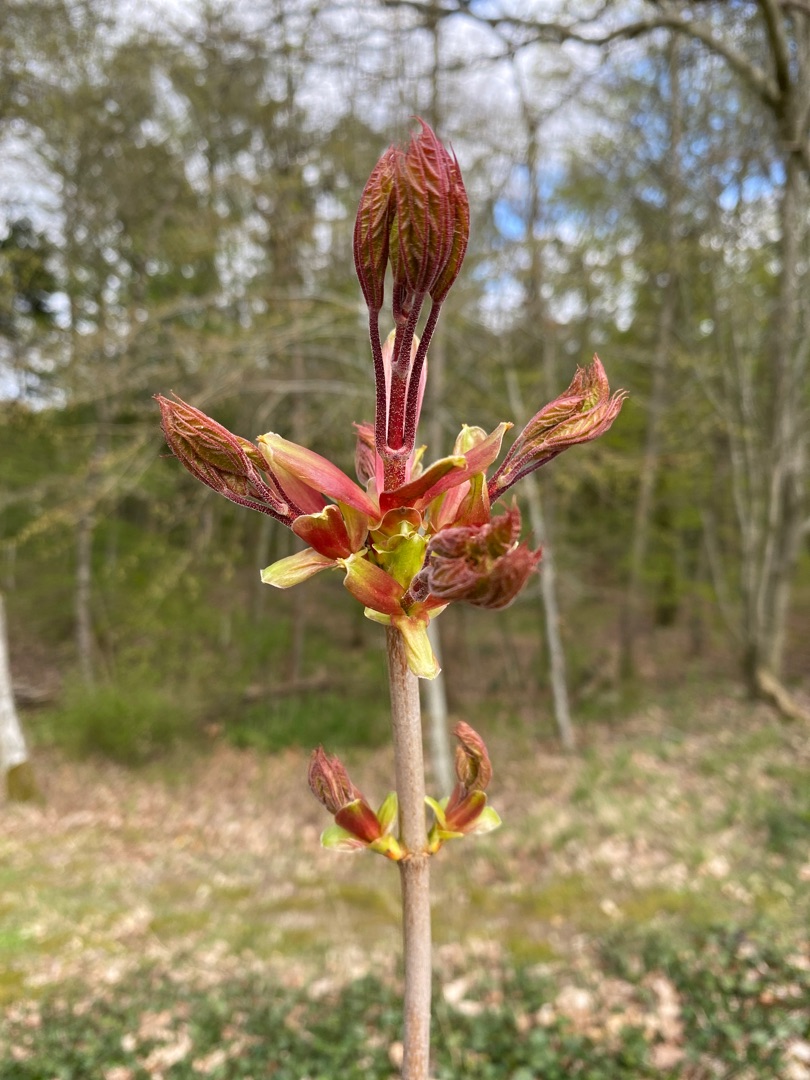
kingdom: Plantae
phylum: Tracheophyta
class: Magnoliopsida
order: Sapindales
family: Sapindaceae
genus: Acer
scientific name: Acer platanoides
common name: Spids-løn
